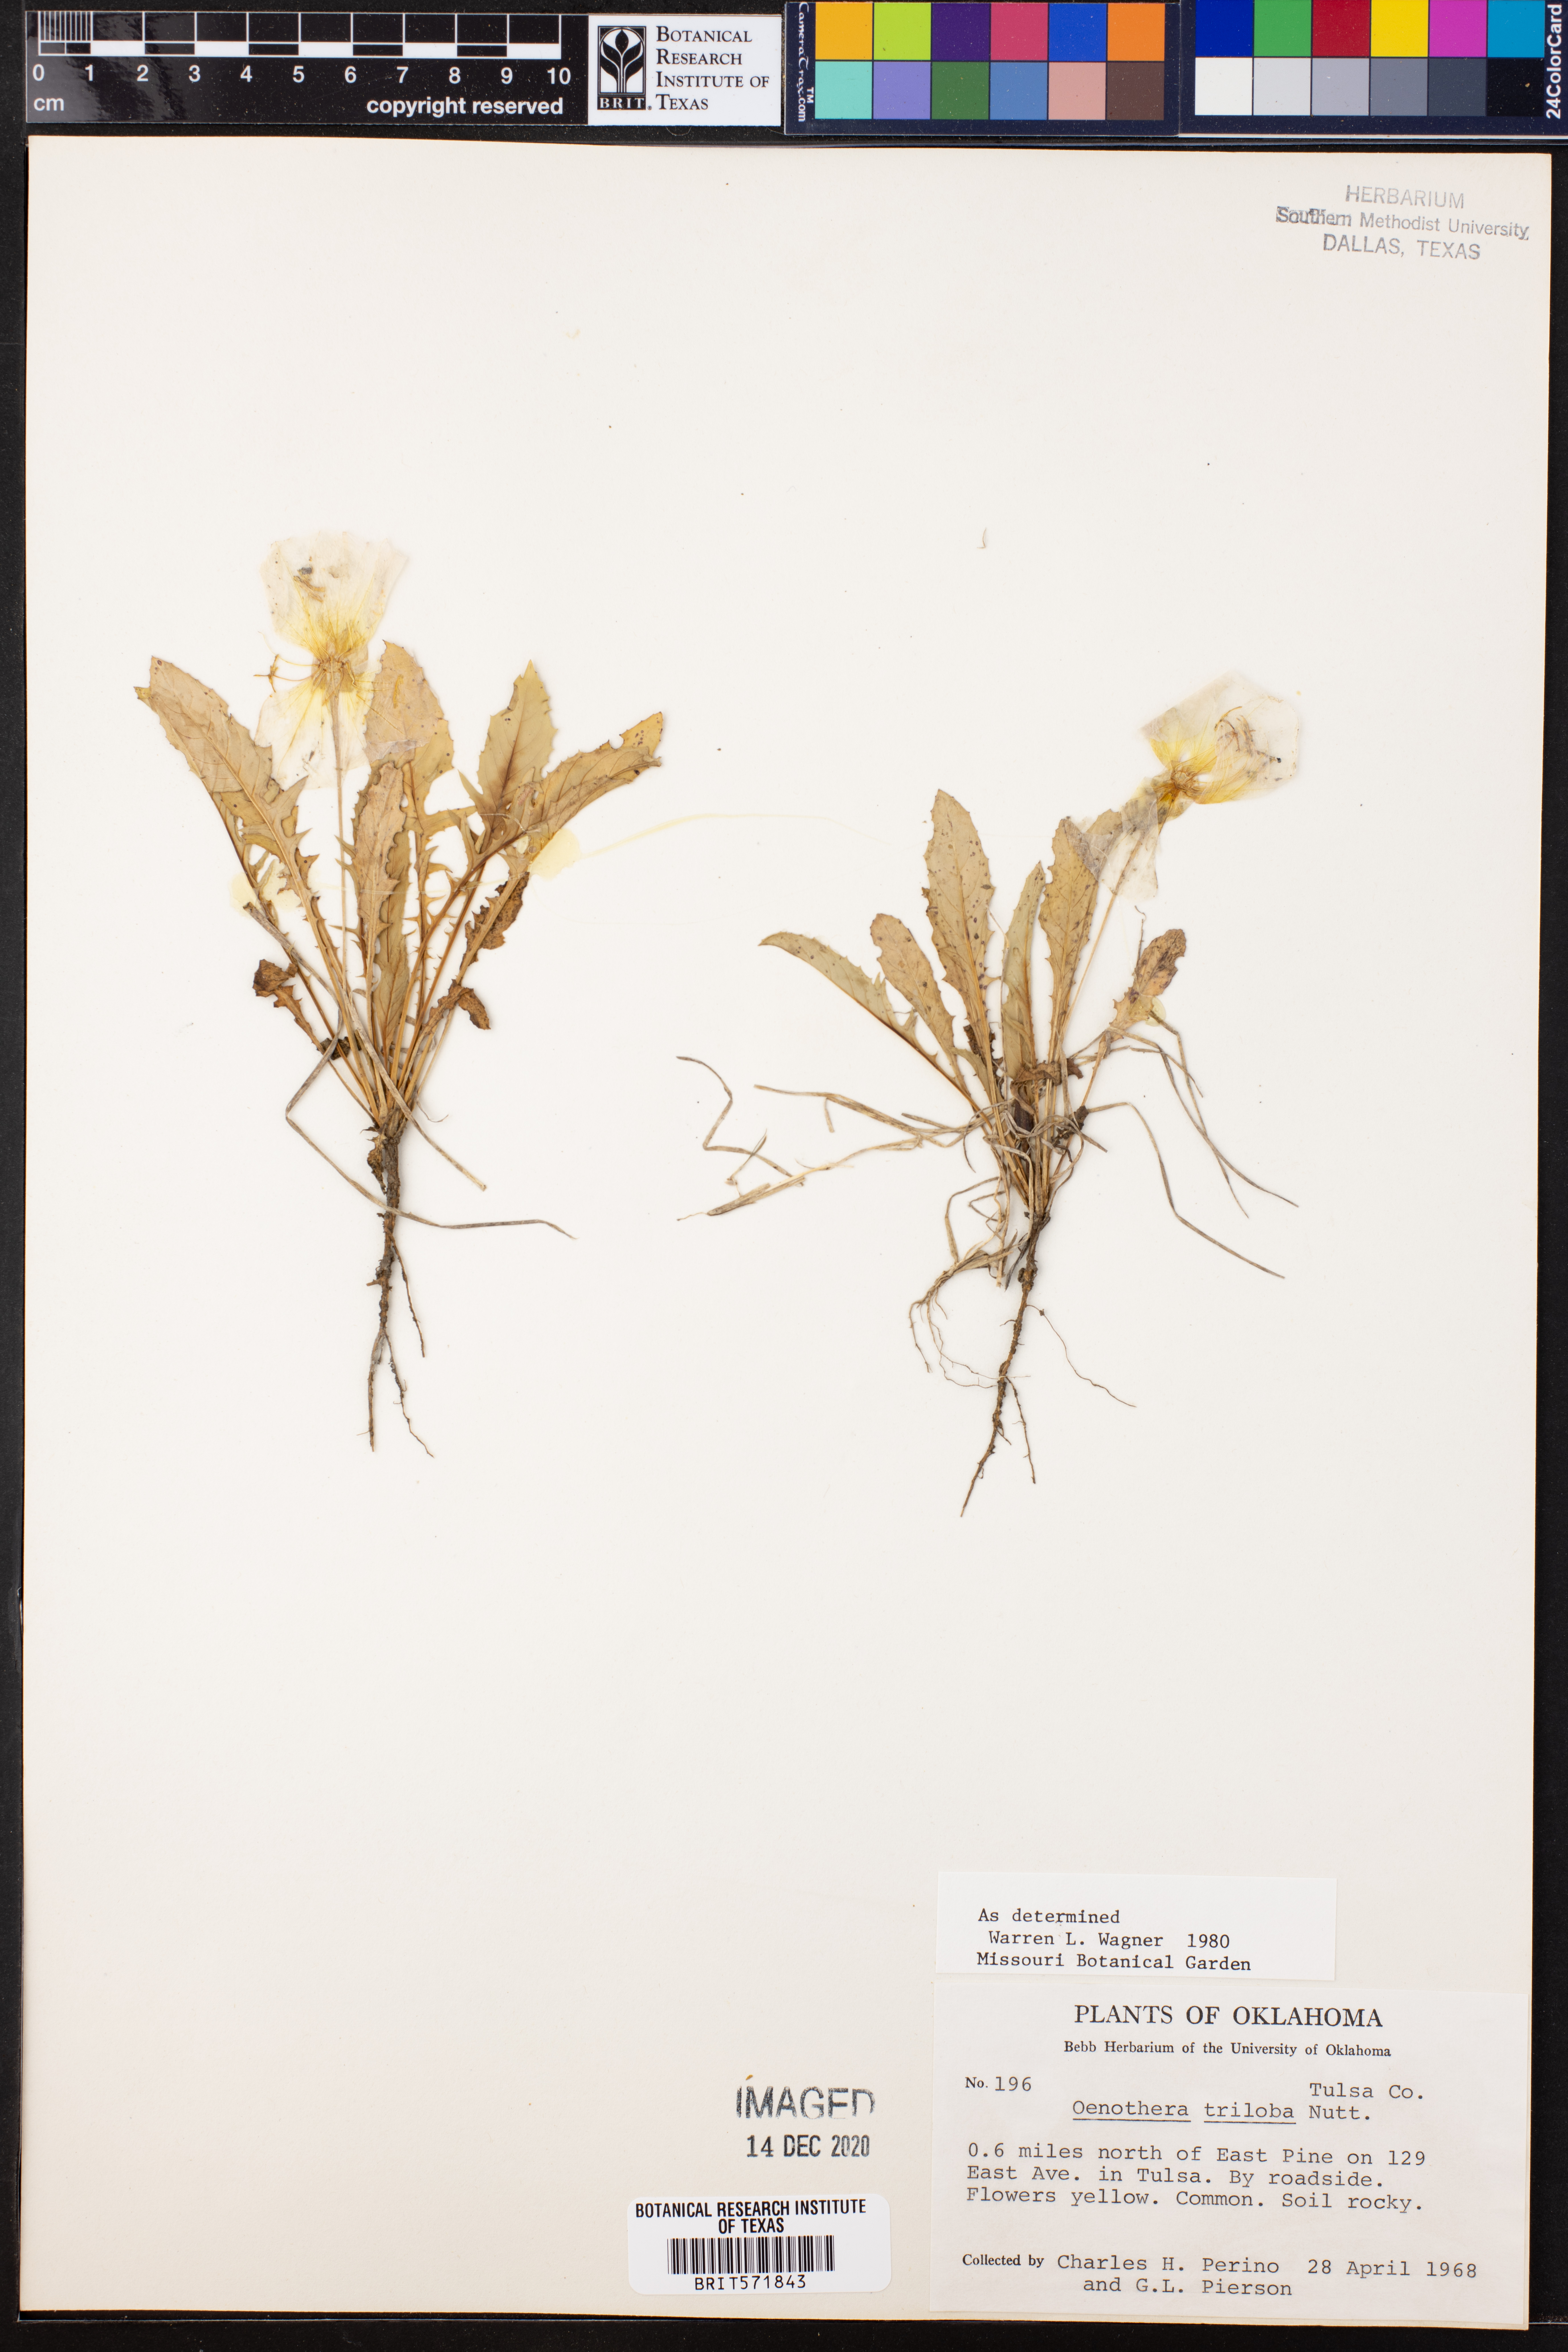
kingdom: Plantae
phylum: Tracheophyta
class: Magnoliopsida
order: Myrtales
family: Onagraceae
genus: Oenothera
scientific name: Oenothera triloba
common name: Sessile evening-primrose
